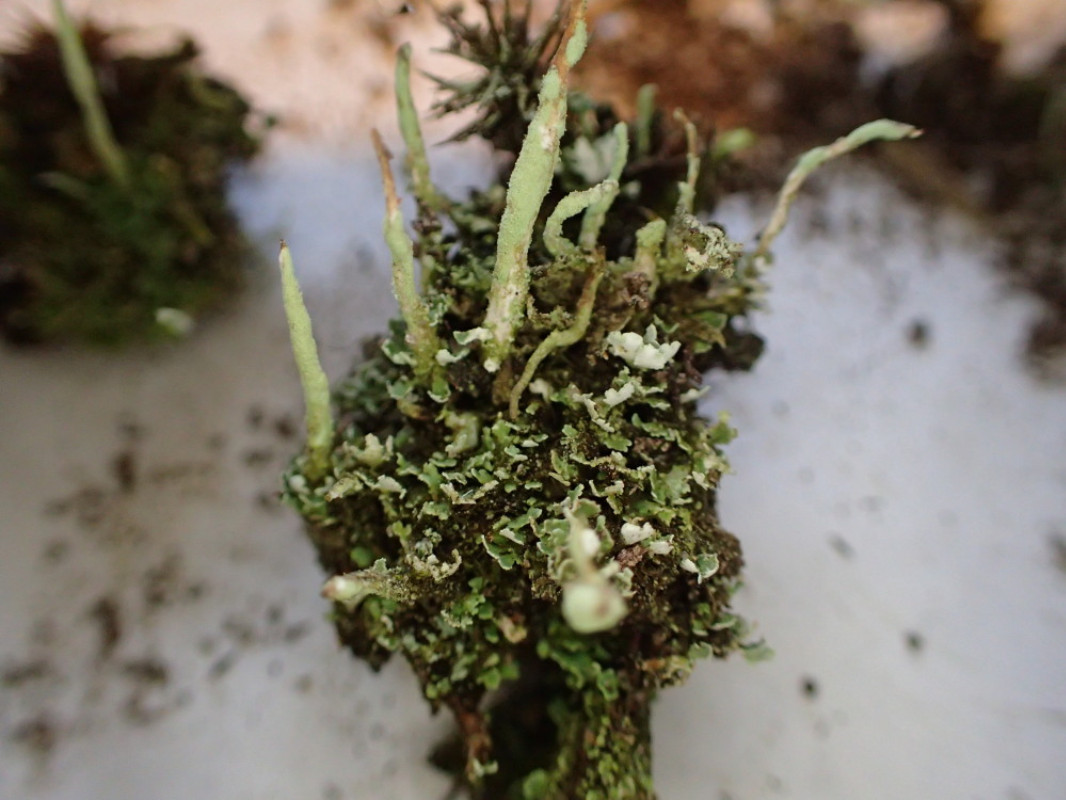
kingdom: Fungi
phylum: Ascomycota
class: Lecanoromycetes
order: Lecanorales
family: Cladoniaceae
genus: Cladonia
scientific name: Cladonia coniocraea
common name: træfods-bægerlav
